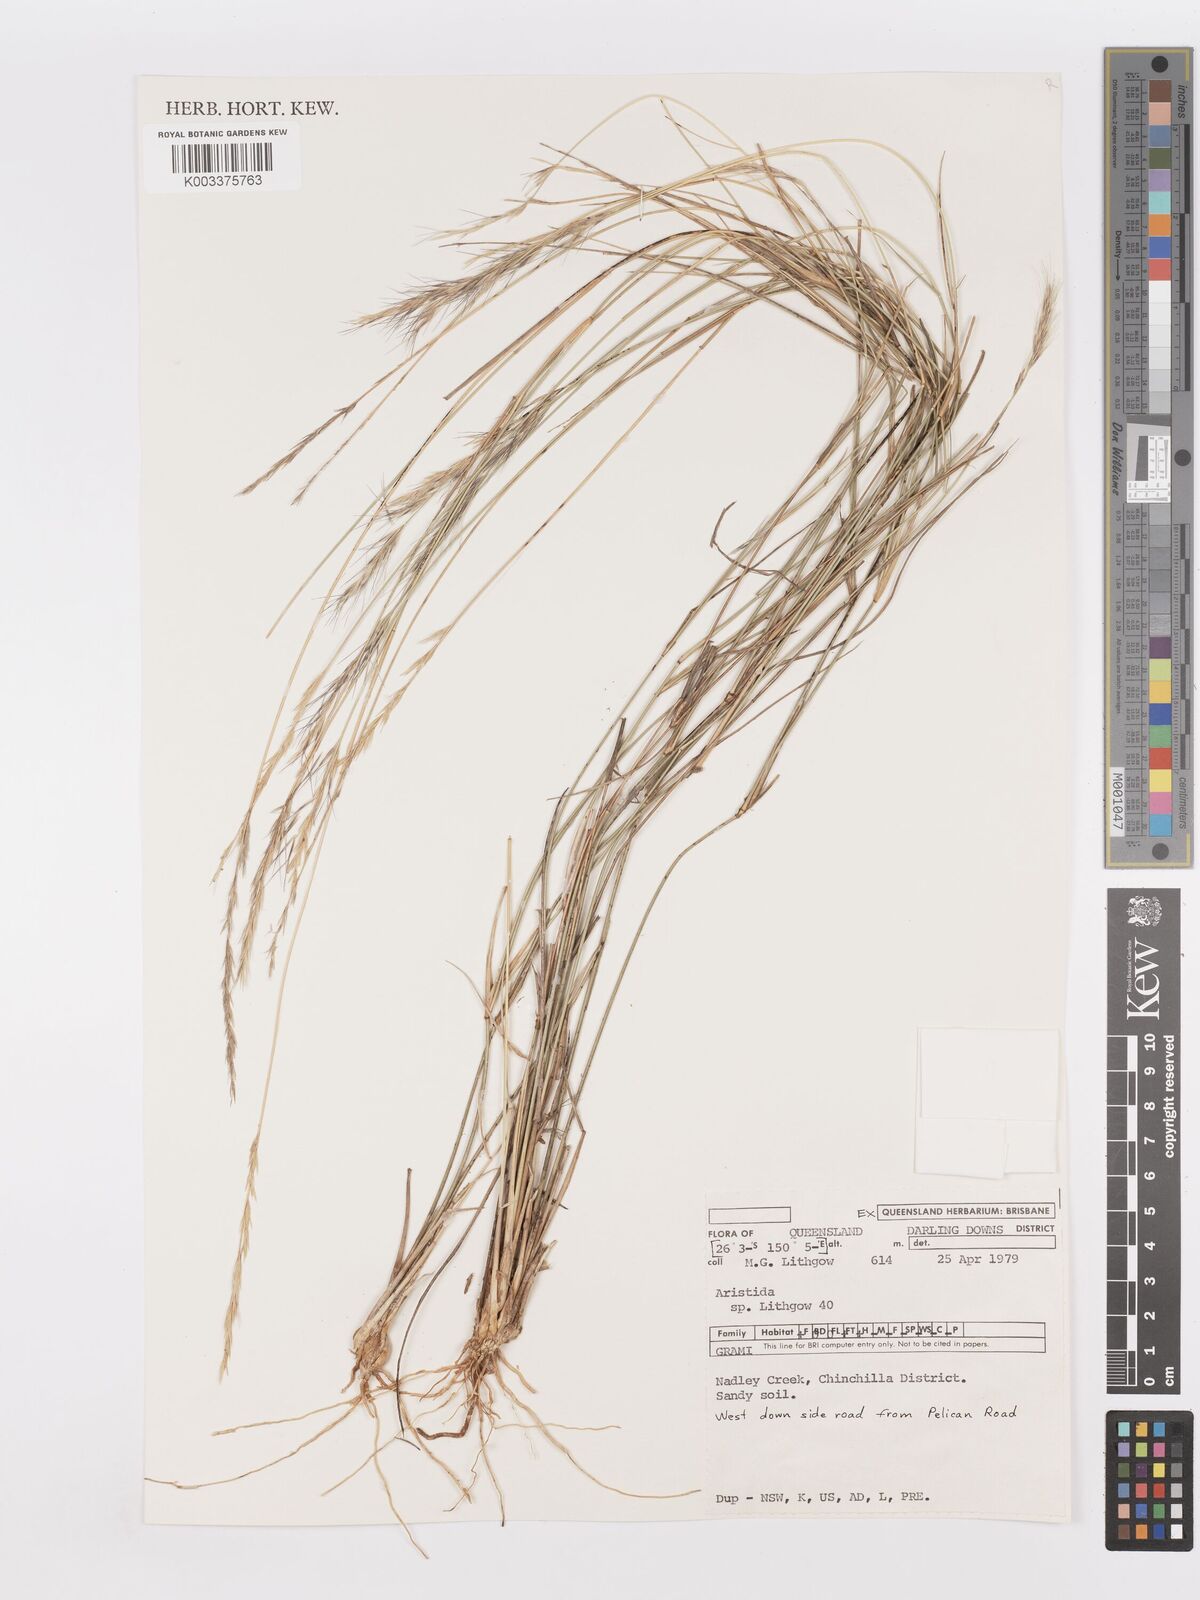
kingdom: Plantae
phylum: Tracheophyta
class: Liliopsida
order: Poales
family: Poaceae
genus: Aristida
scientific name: Aristida
